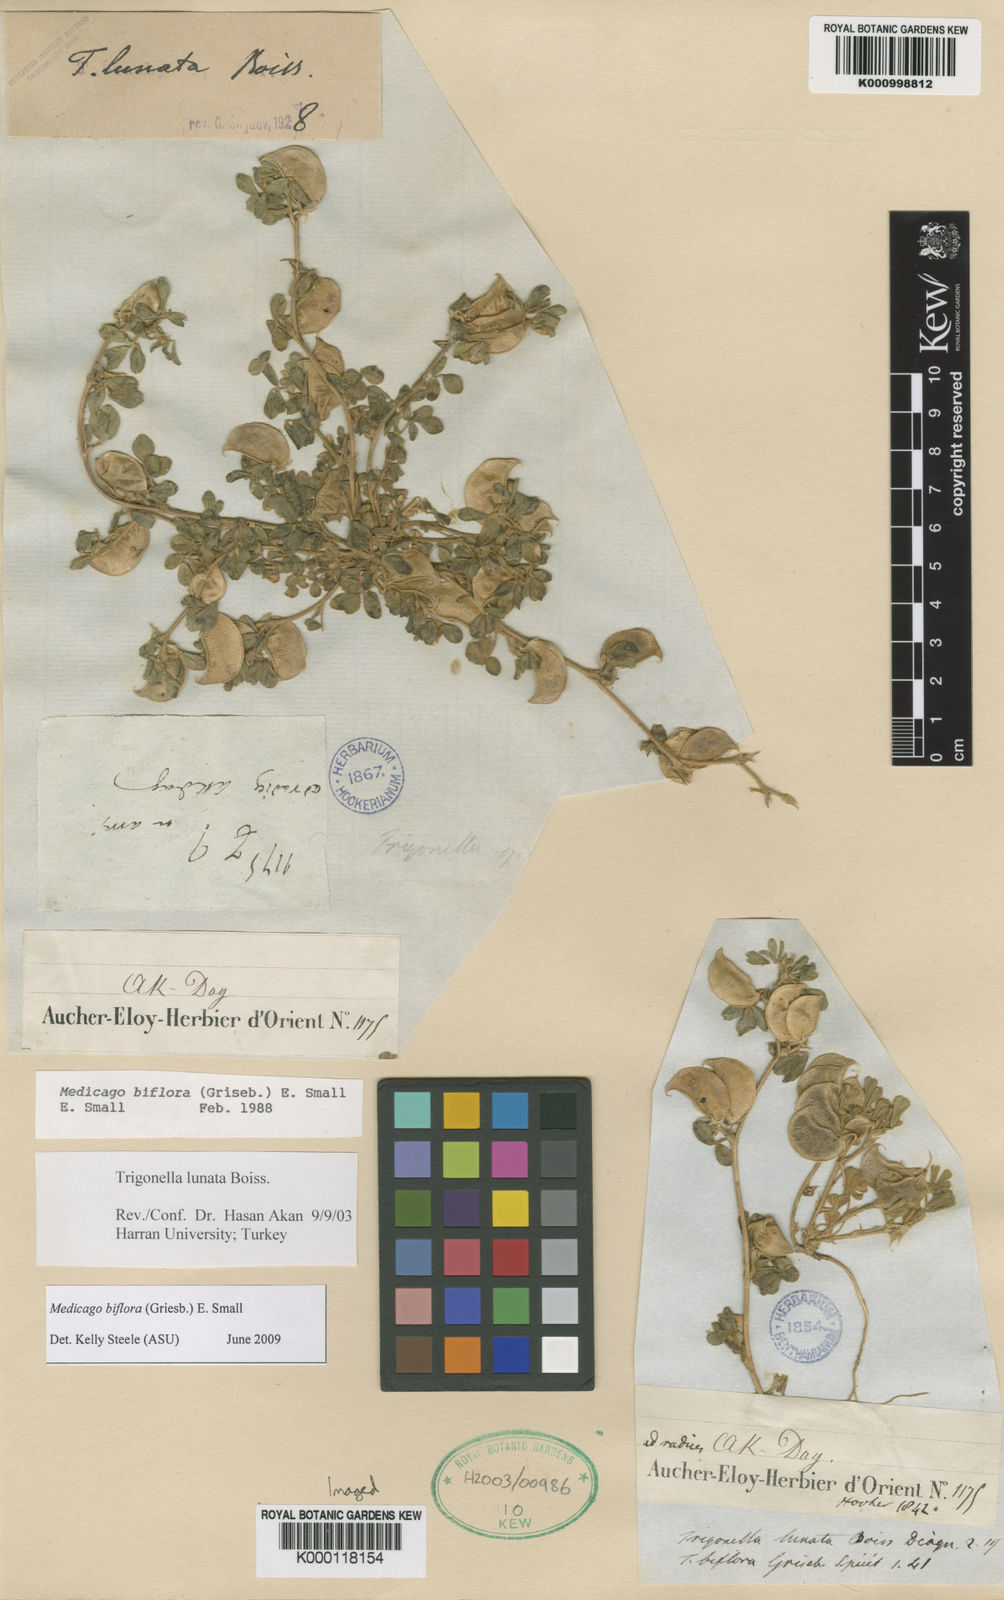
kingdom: Plantae
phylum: Tracheophyta
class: Magnoliopsida
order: Fabales
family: Fabaceae
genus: Medicago
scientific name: Medicago biflora
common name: Lunate medic
